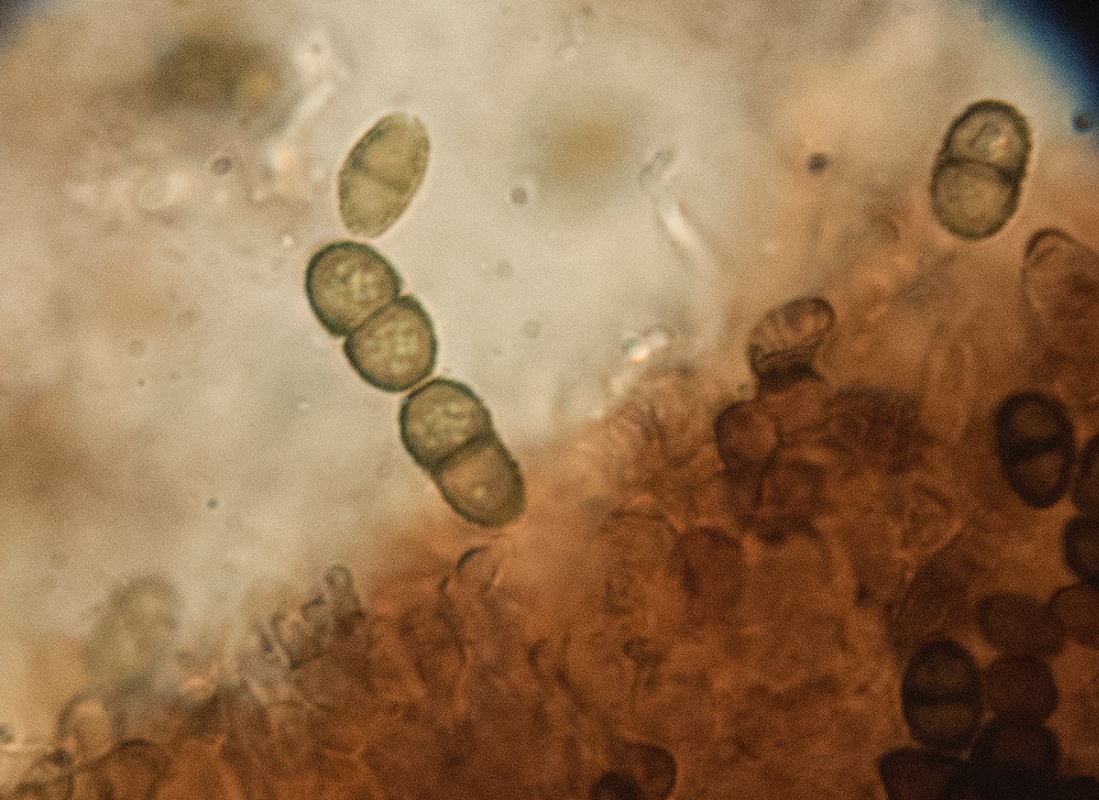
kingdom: Fungi
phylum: Ascomycota
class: Lecanoromycetes
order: Caliciales
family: Caliciaceae
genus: Calicium
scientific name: Calicium glaucellum
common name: grågrøn nålelav
